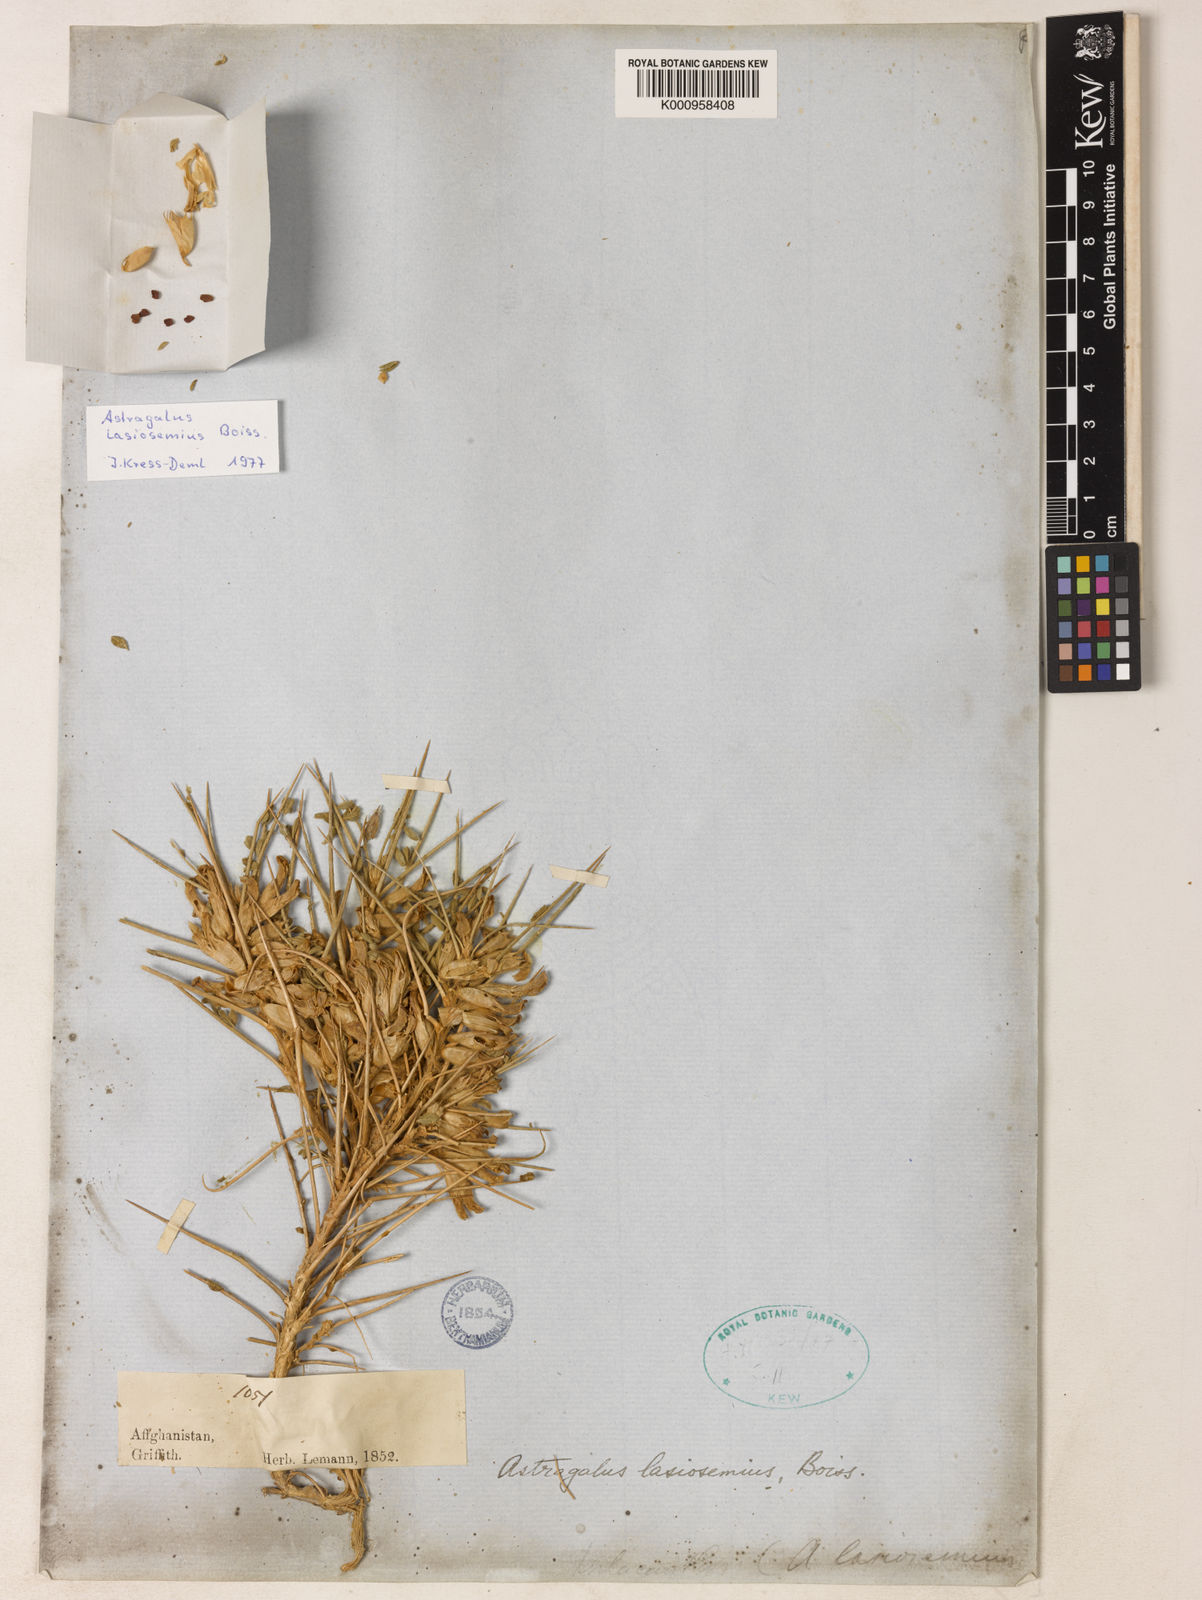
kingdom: Plantae
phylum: Tracheophyta
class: Magnoliopsida
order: Fabales
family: Fabaceae
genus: Astragalus
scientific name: Astragalus
